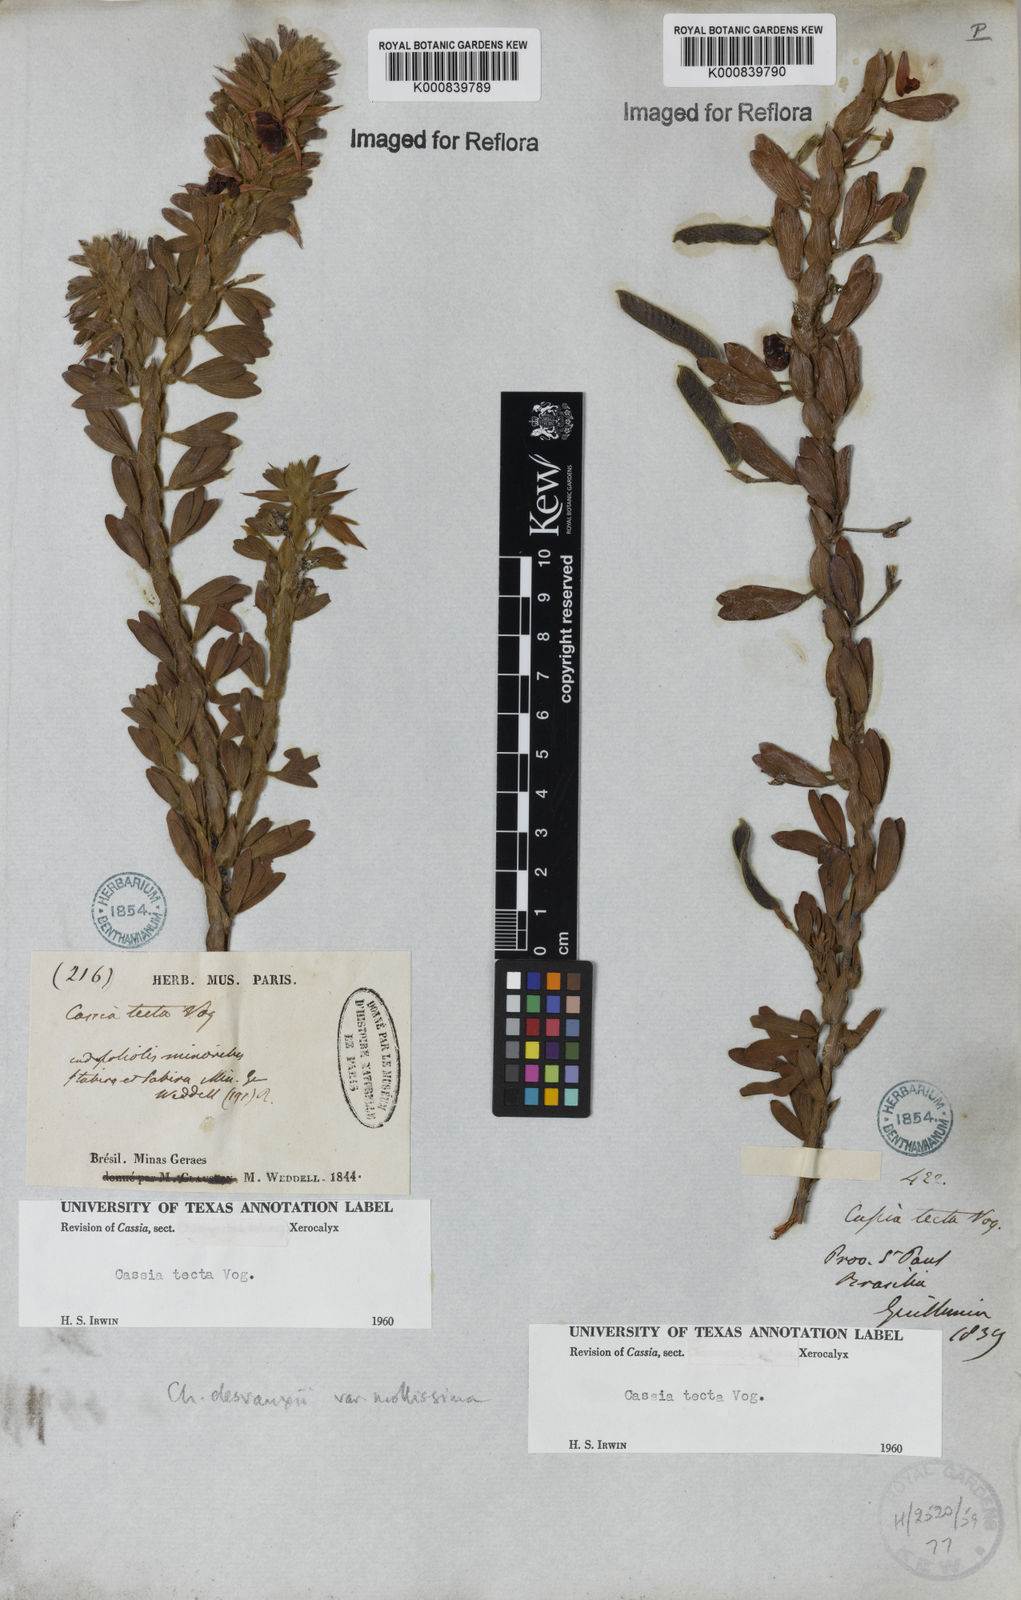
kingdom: Plantae
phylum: Tracheophyta
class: Magnoliopsida
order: Fabales
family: Fabaceae
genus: Chamaecrista
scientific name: Chamaecrista desvauxii
